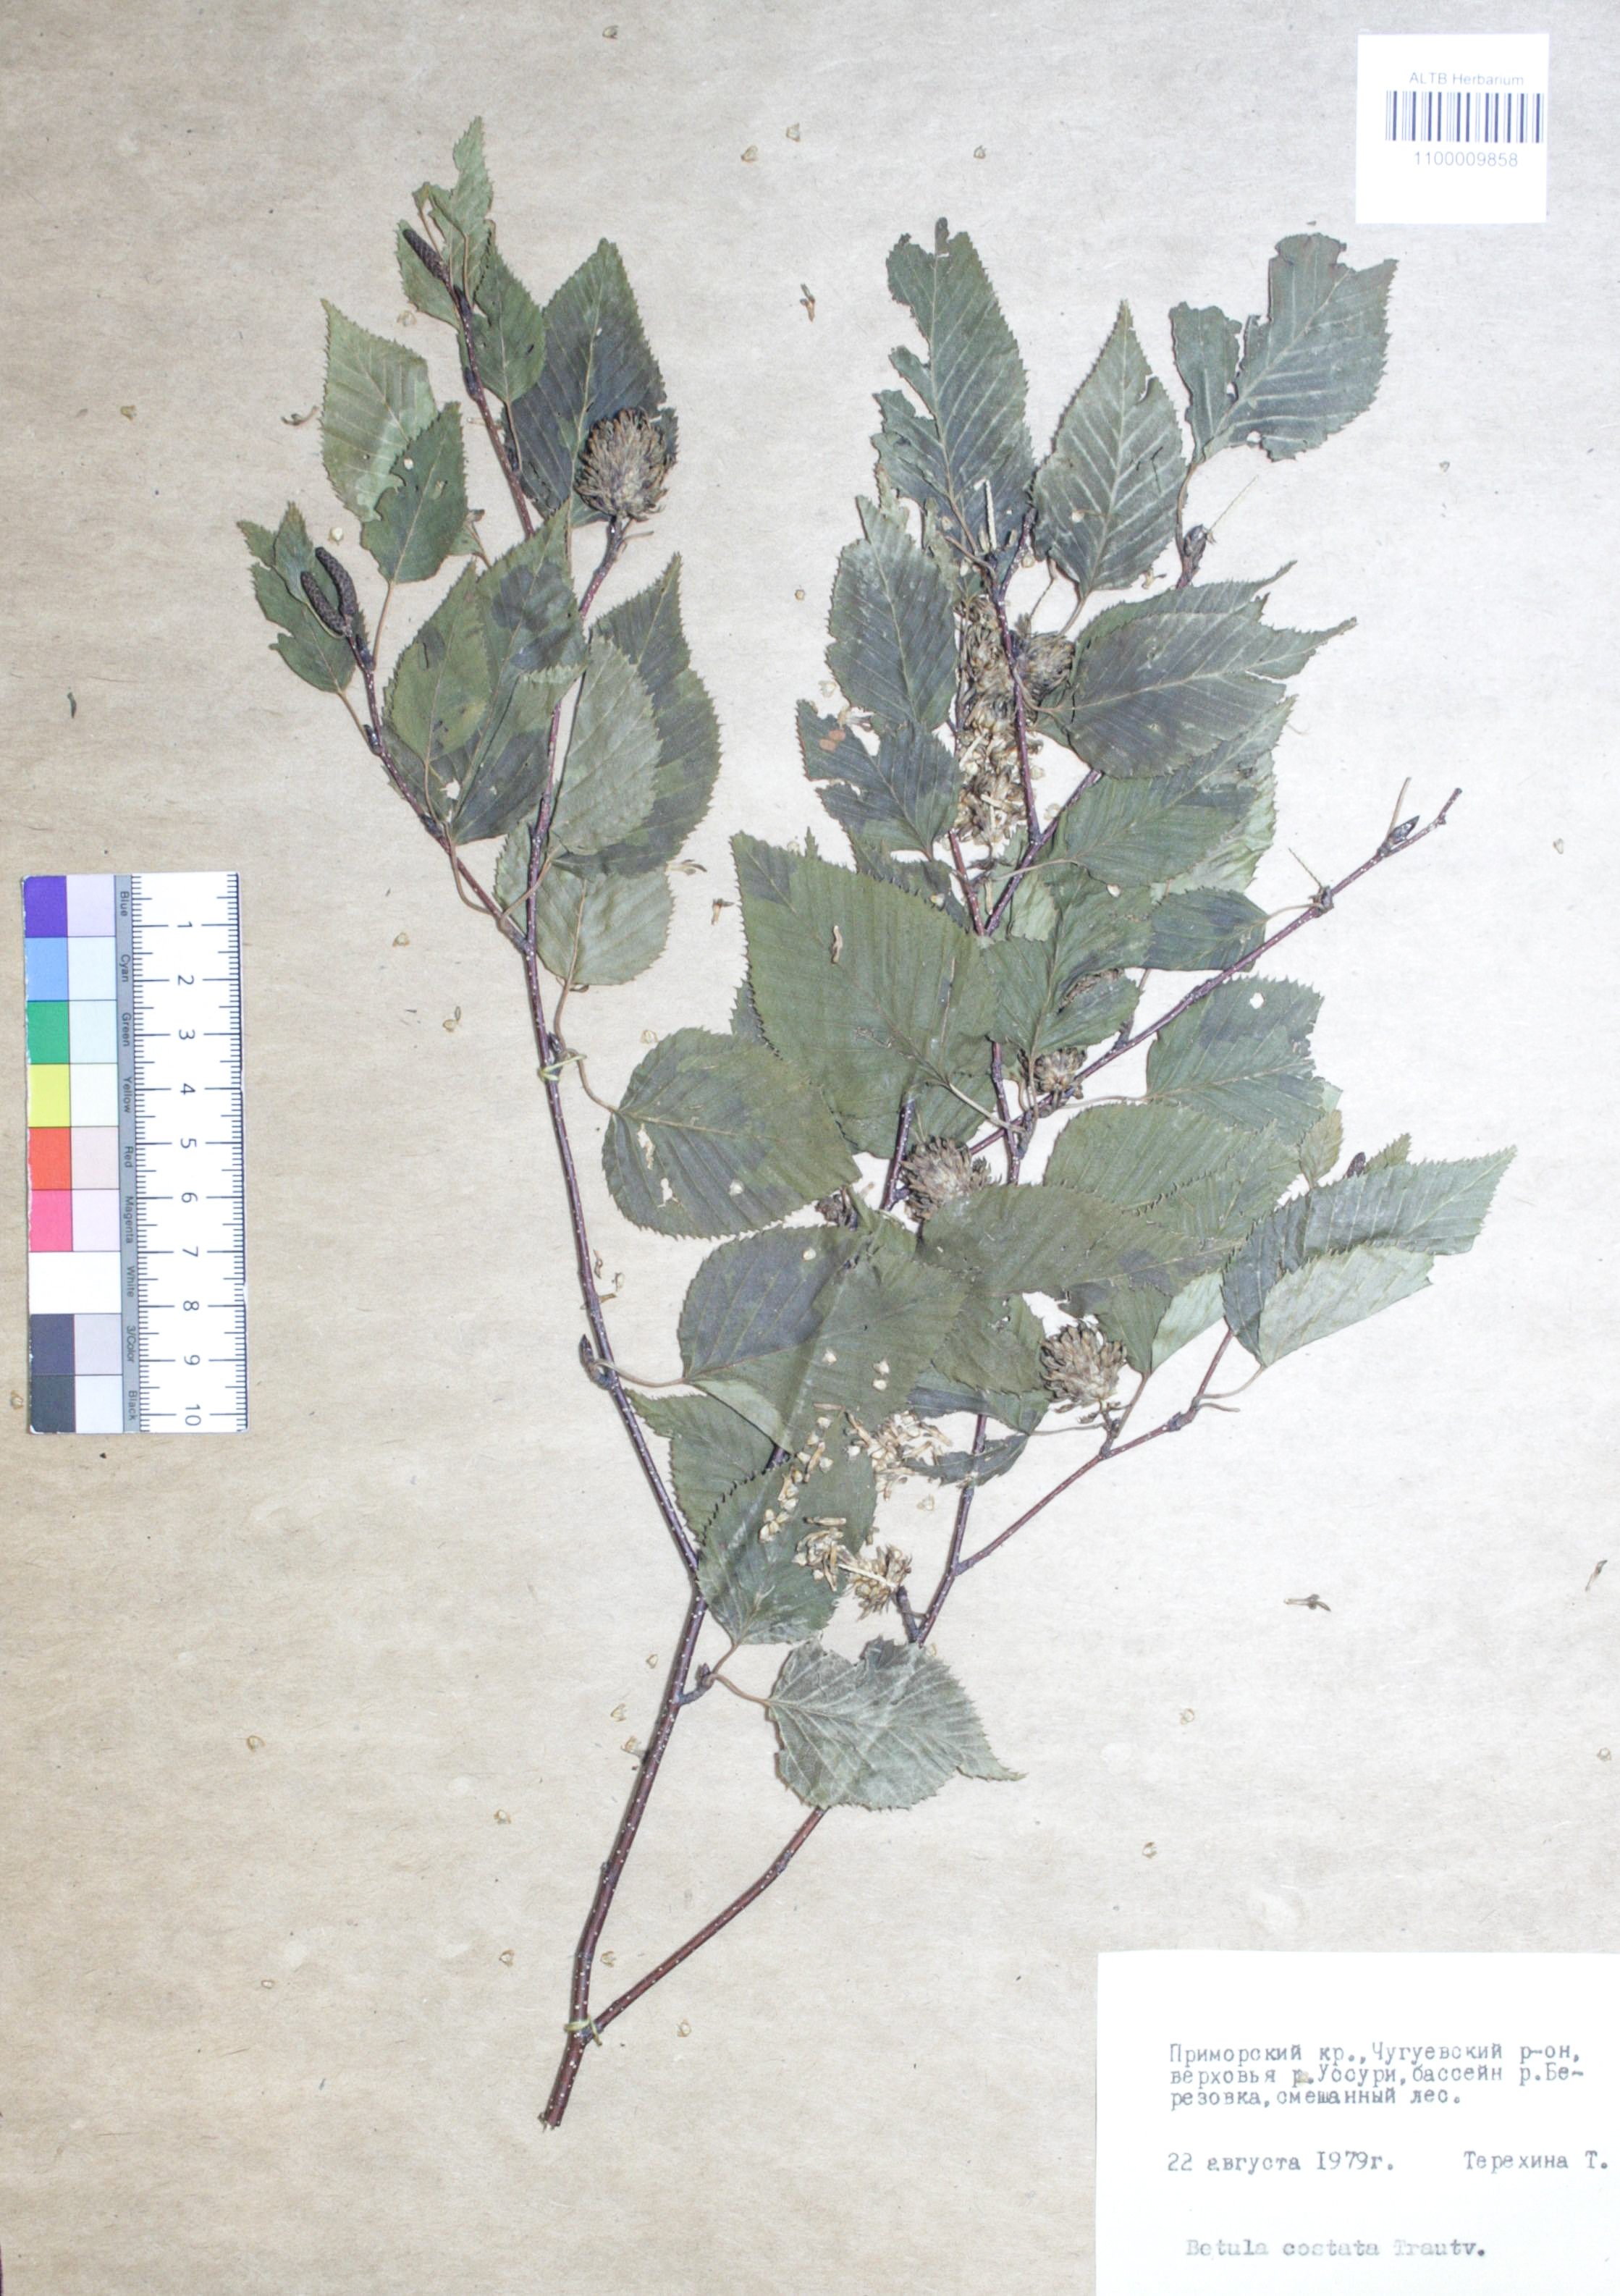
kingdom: Plantae
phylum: Tracheophyta
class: Magnoliopsida
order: Fagales
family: Betulaceae
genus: Betula
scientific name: Betula costata
